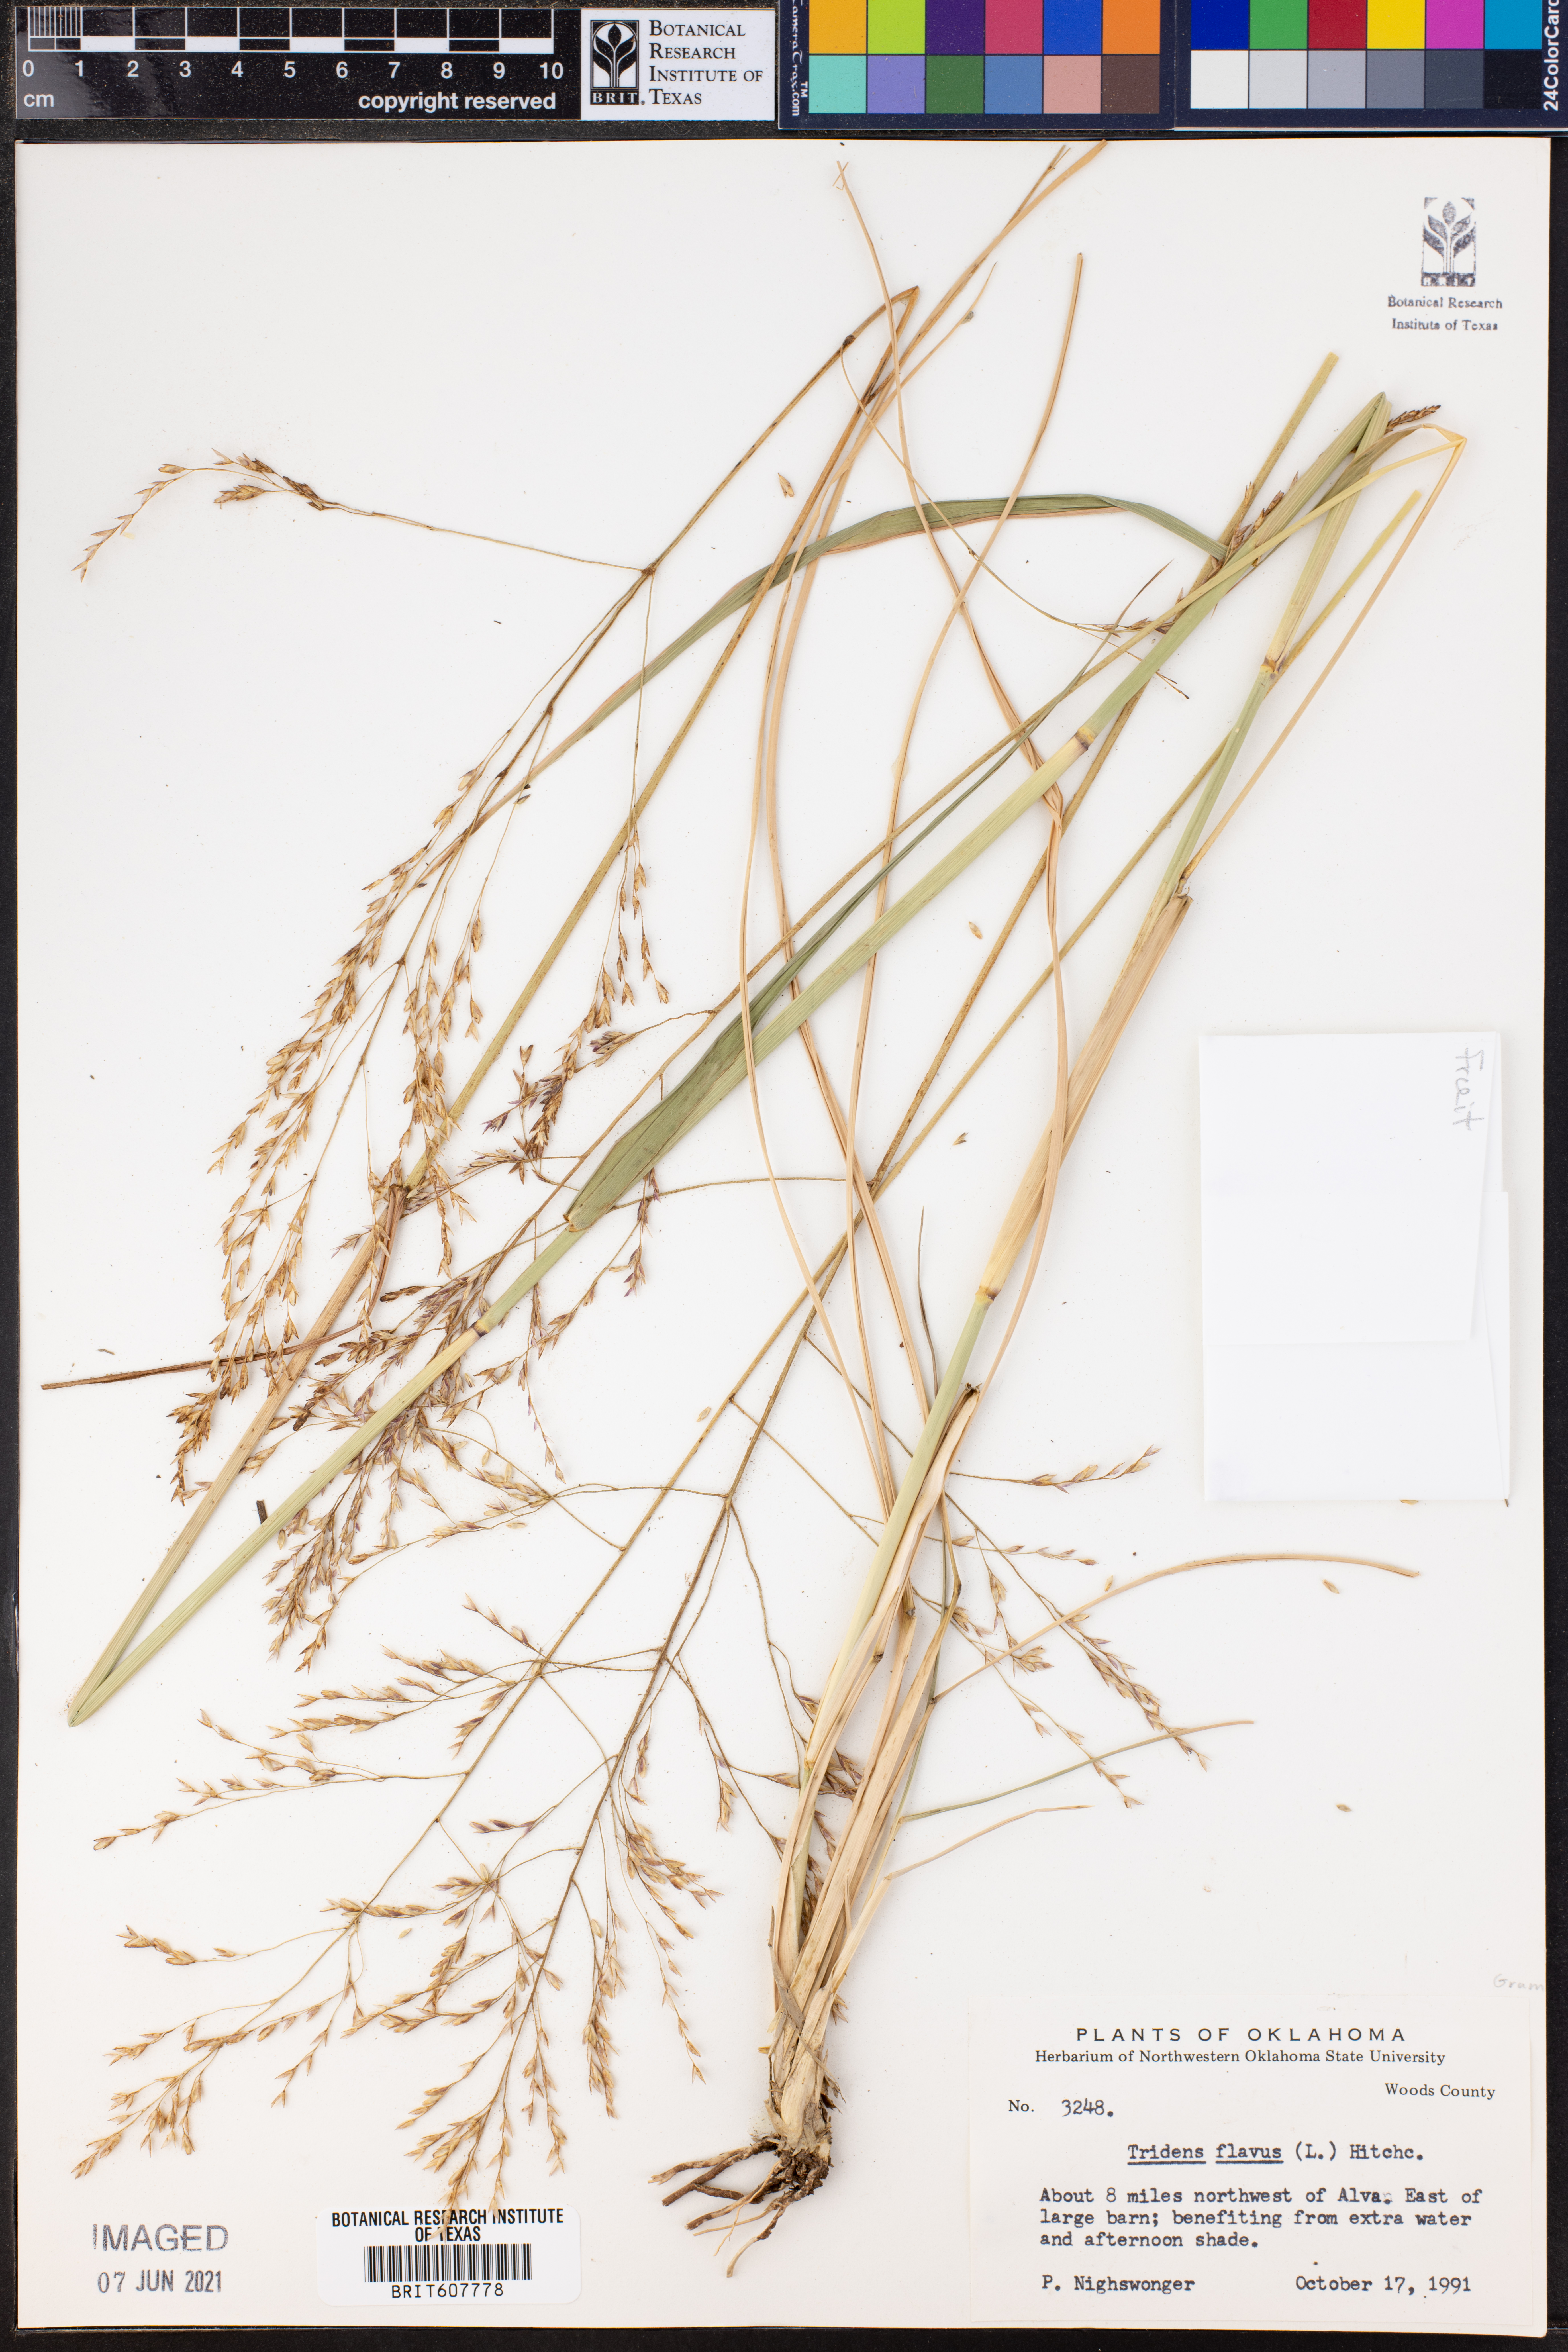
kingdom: Plantae
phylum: Tracheophyta
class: Liliopsida
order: Poales
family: Poaceae
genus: Tridens
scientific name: Tridens flavus
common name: Purpletop
